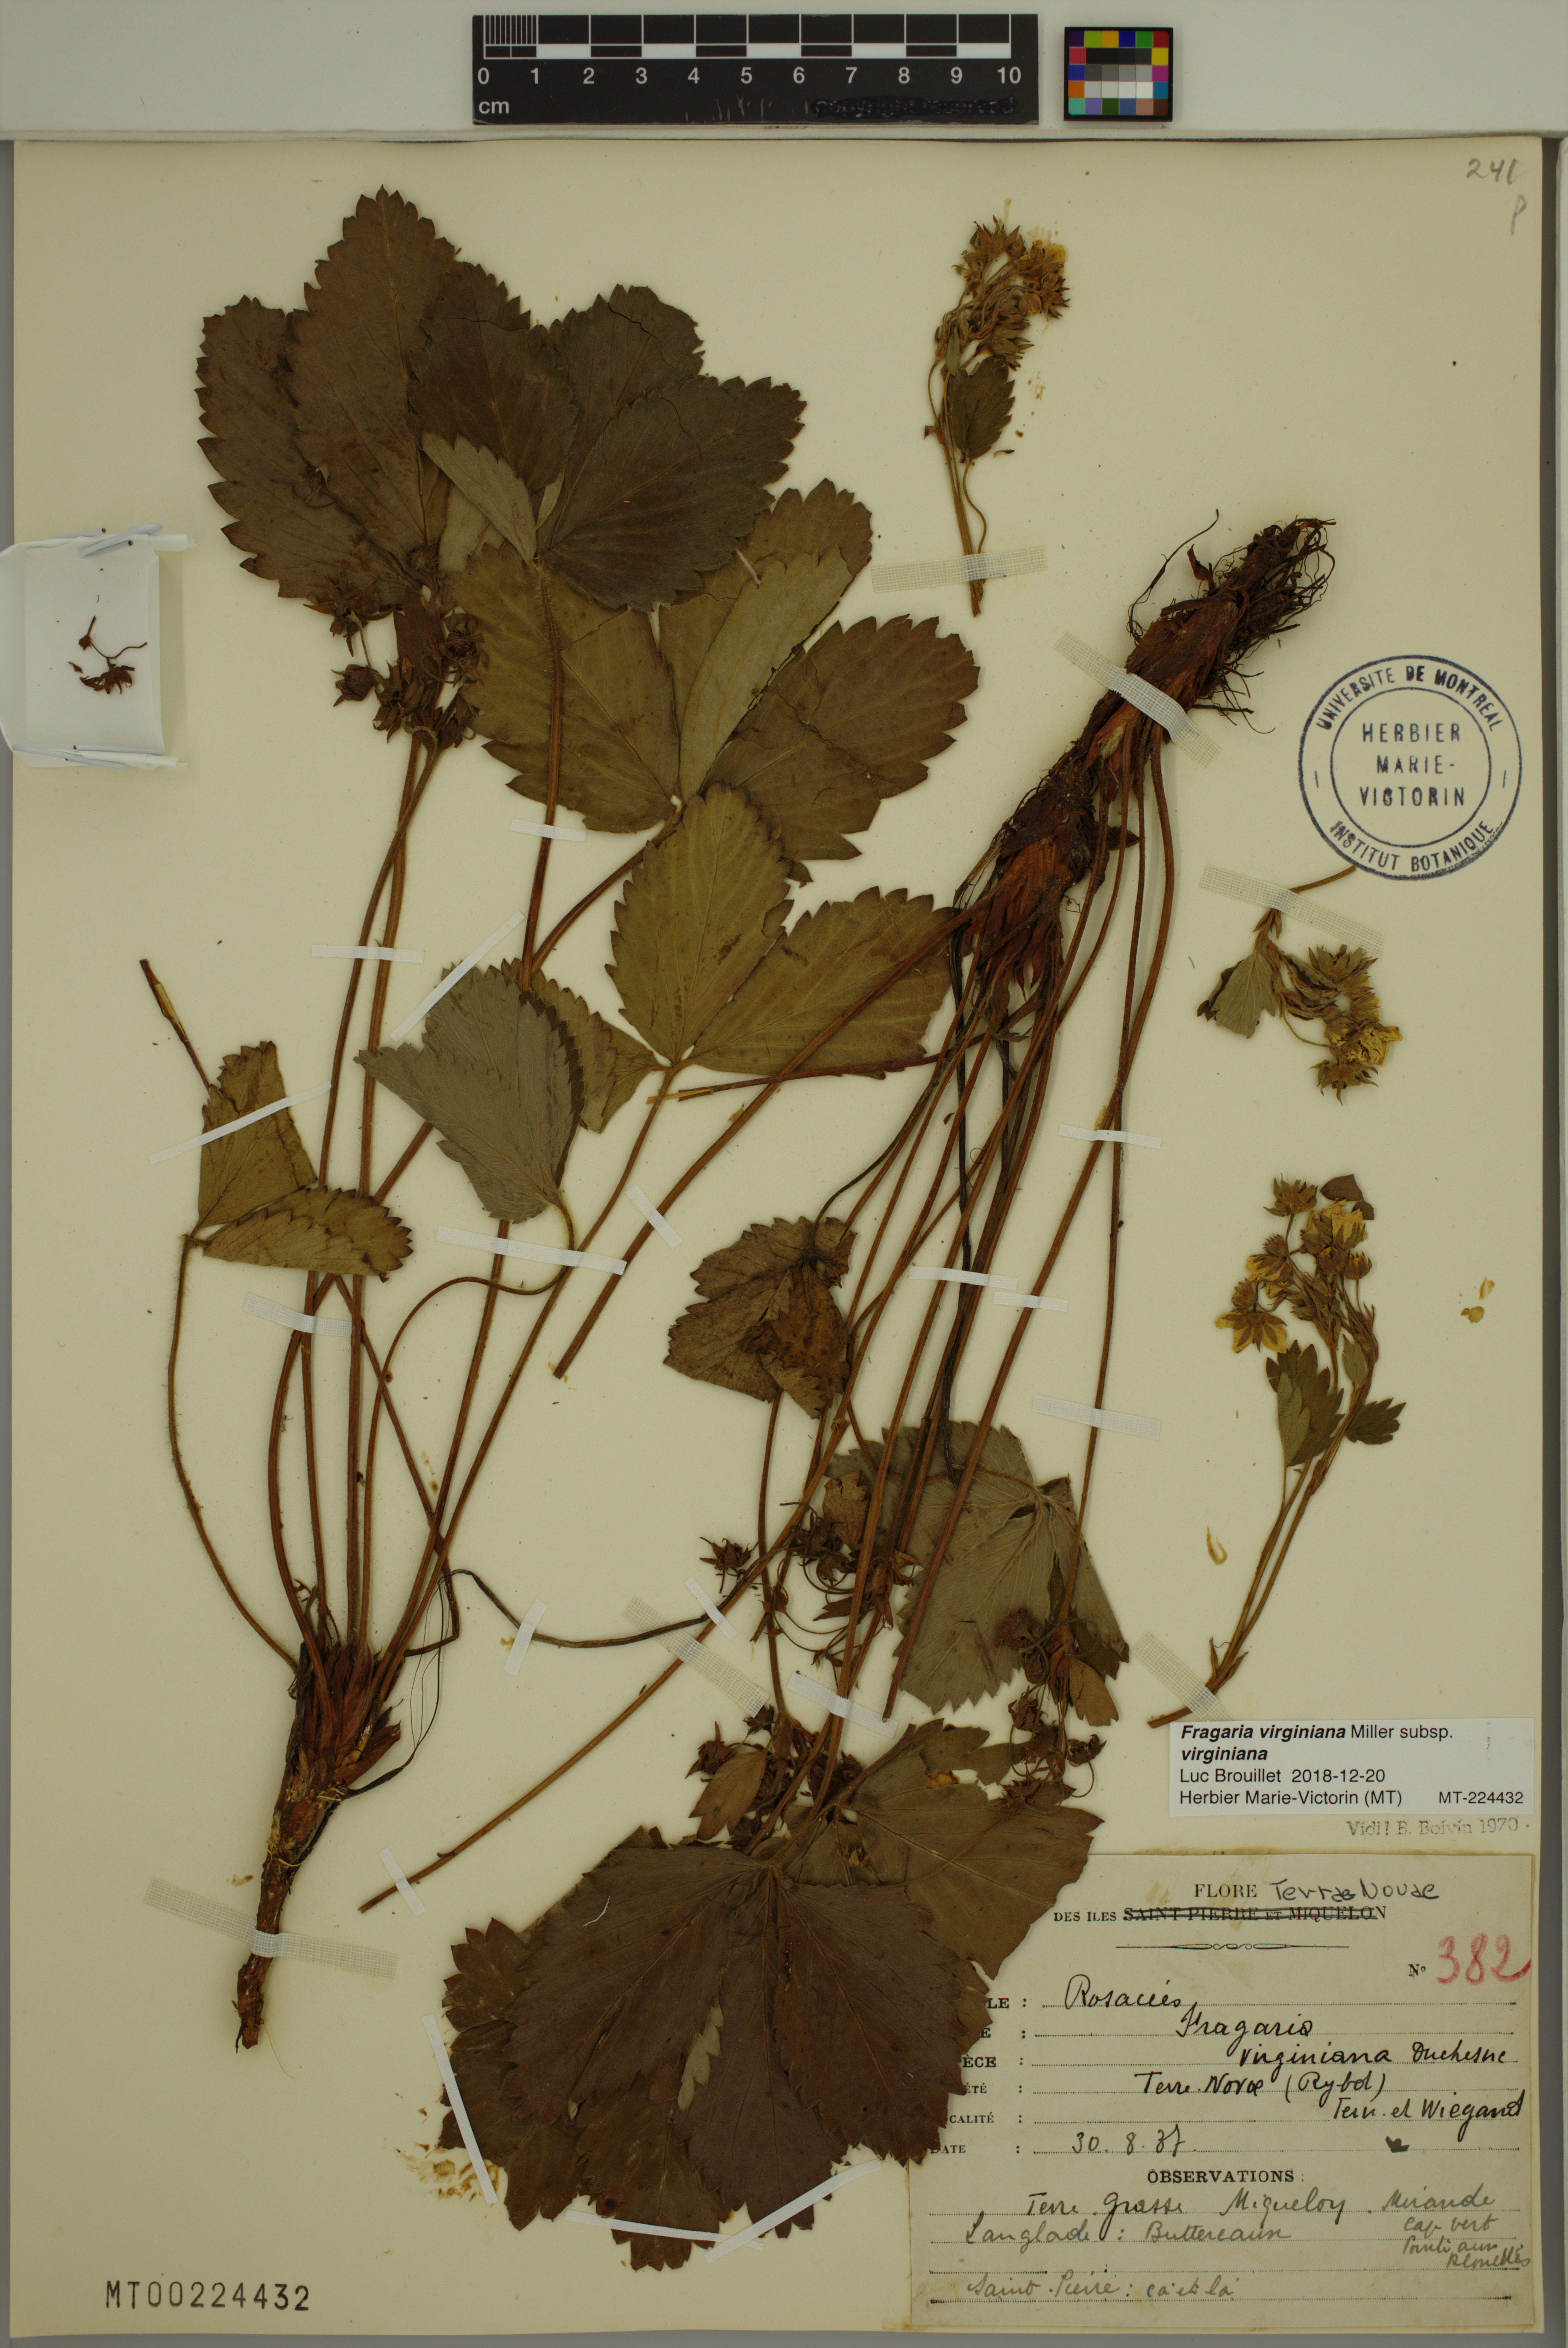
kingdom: Plantae
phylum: Tracheophyta
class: Magnoliopsida
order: Rosales
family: Rosaceae
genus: Fragaria
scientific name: Fragaria virginiana
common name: Thickleaved wild strawberry
